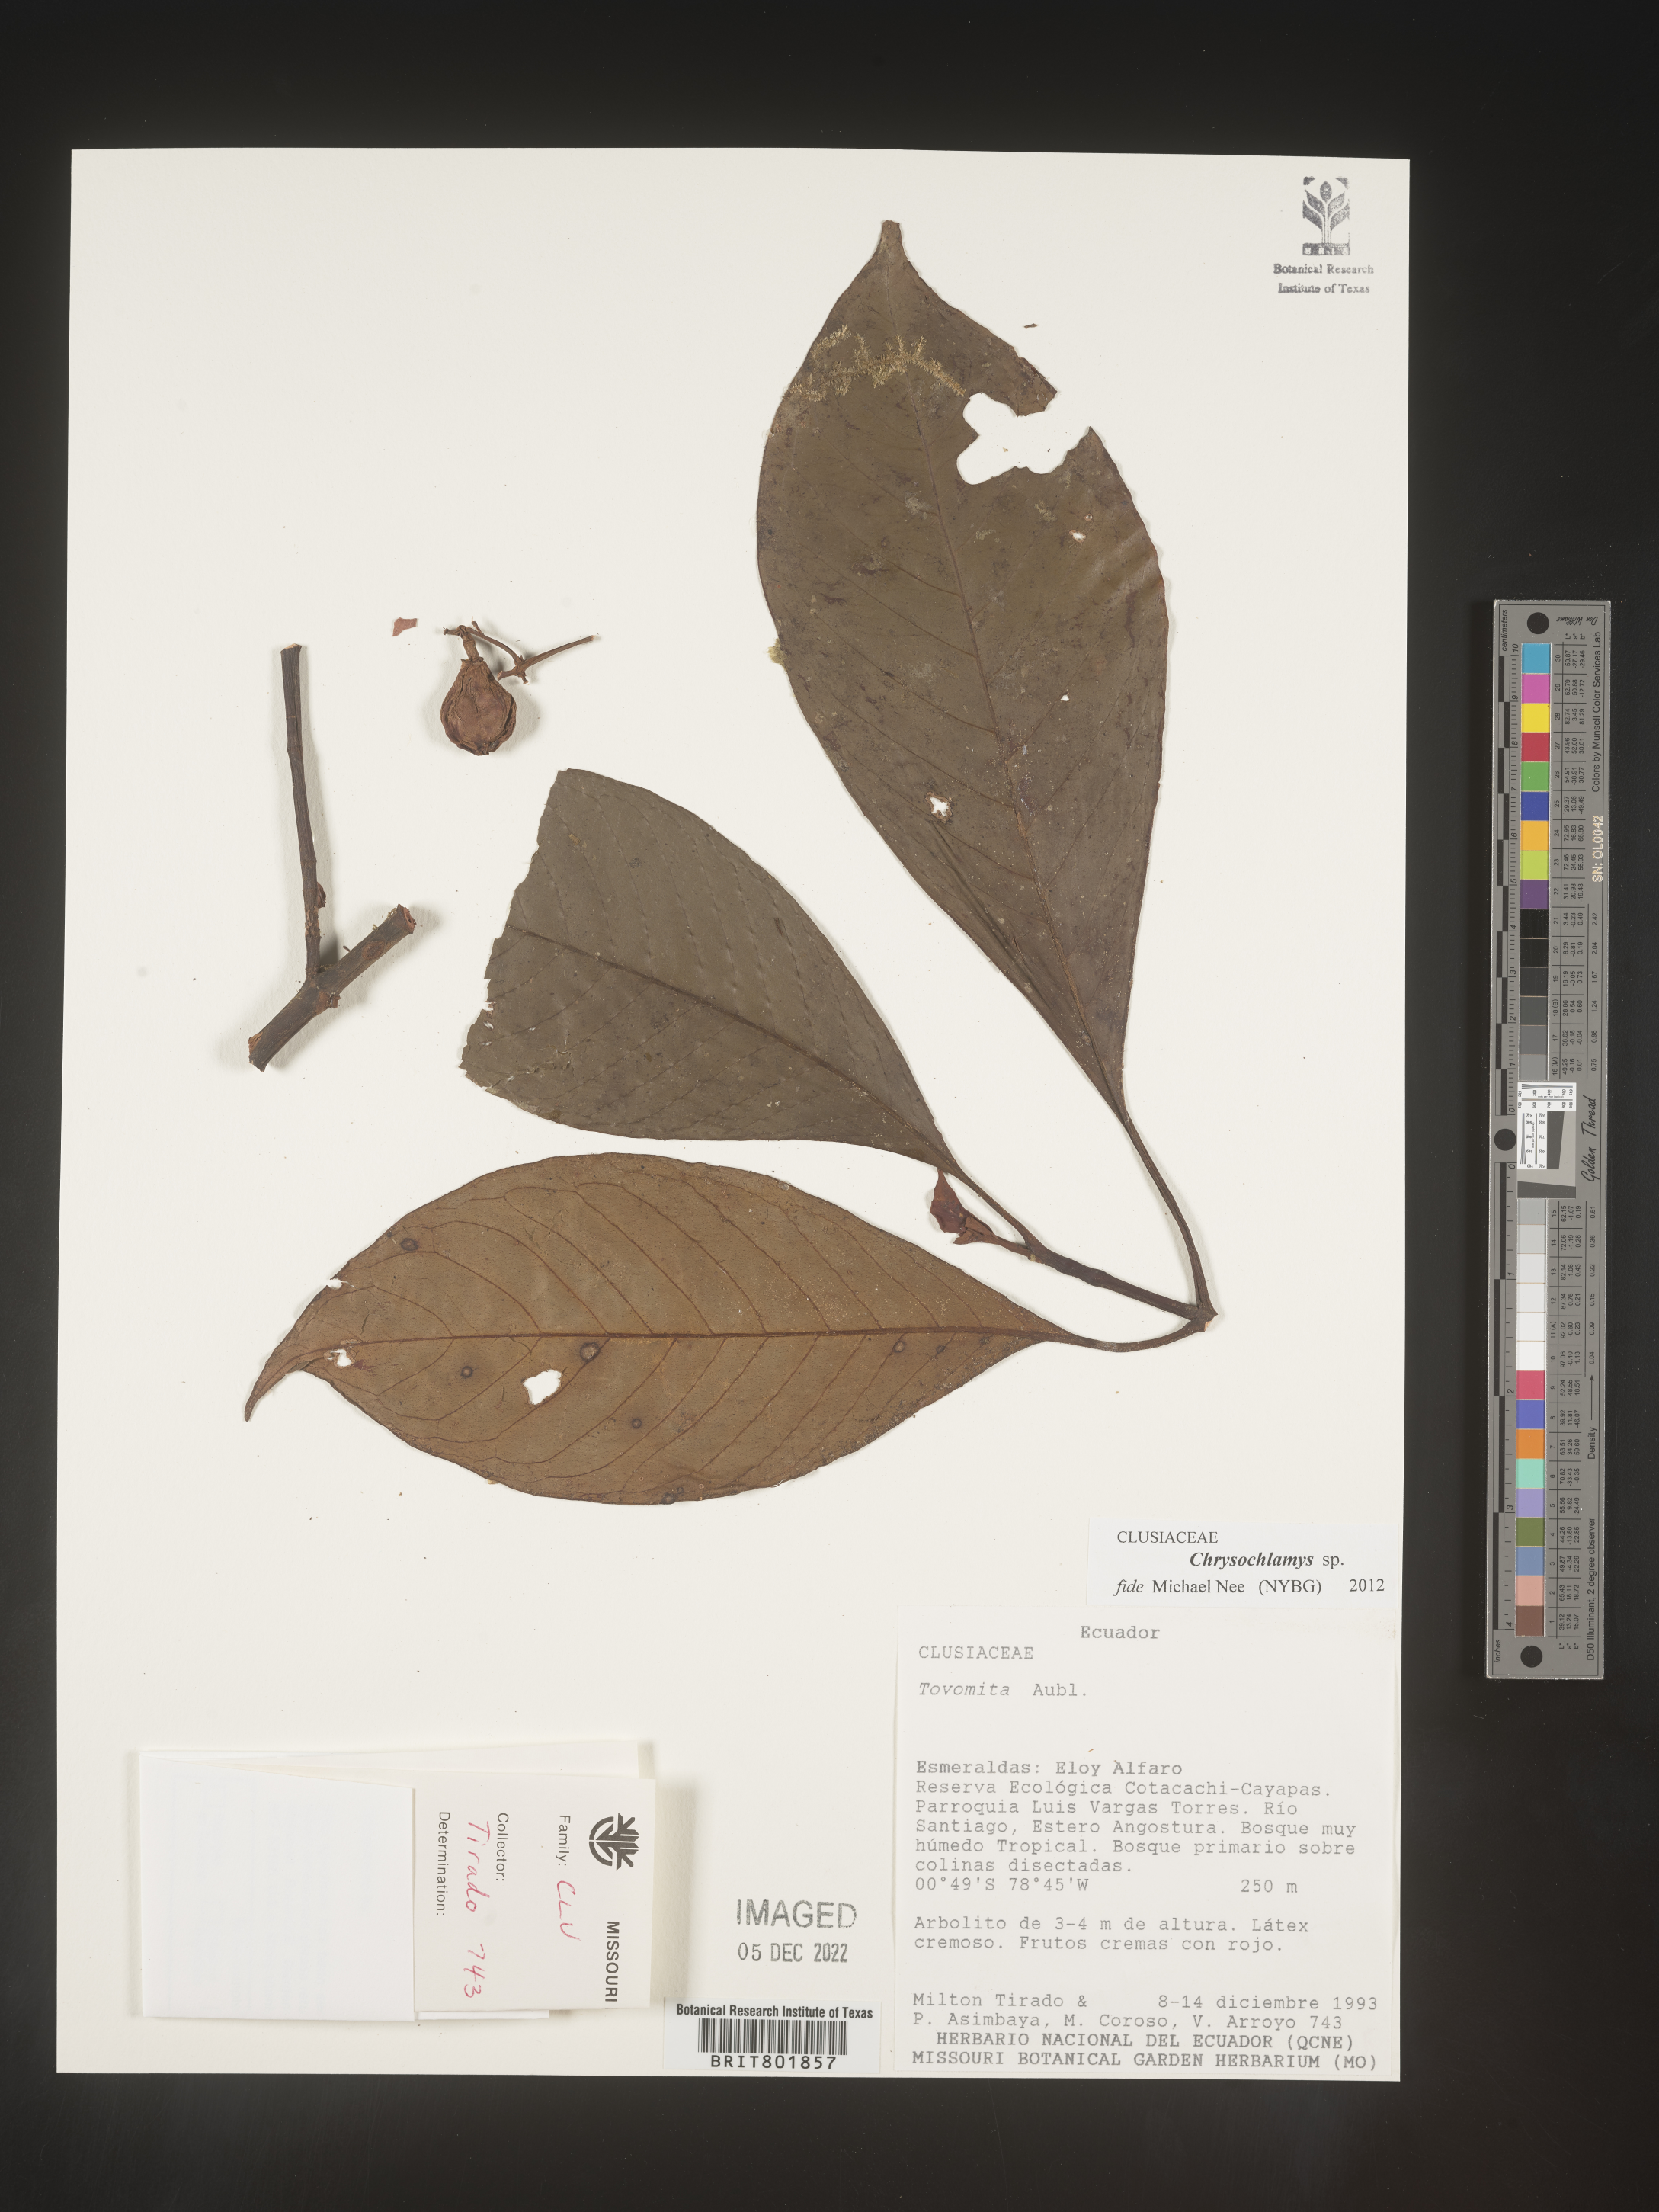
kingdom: Plantae
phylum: Tracheophyta
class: Magnoliopsida
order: Malpighiales
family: Clusiaceae
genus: Chrysochlamys
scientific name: Chrysochlamys
